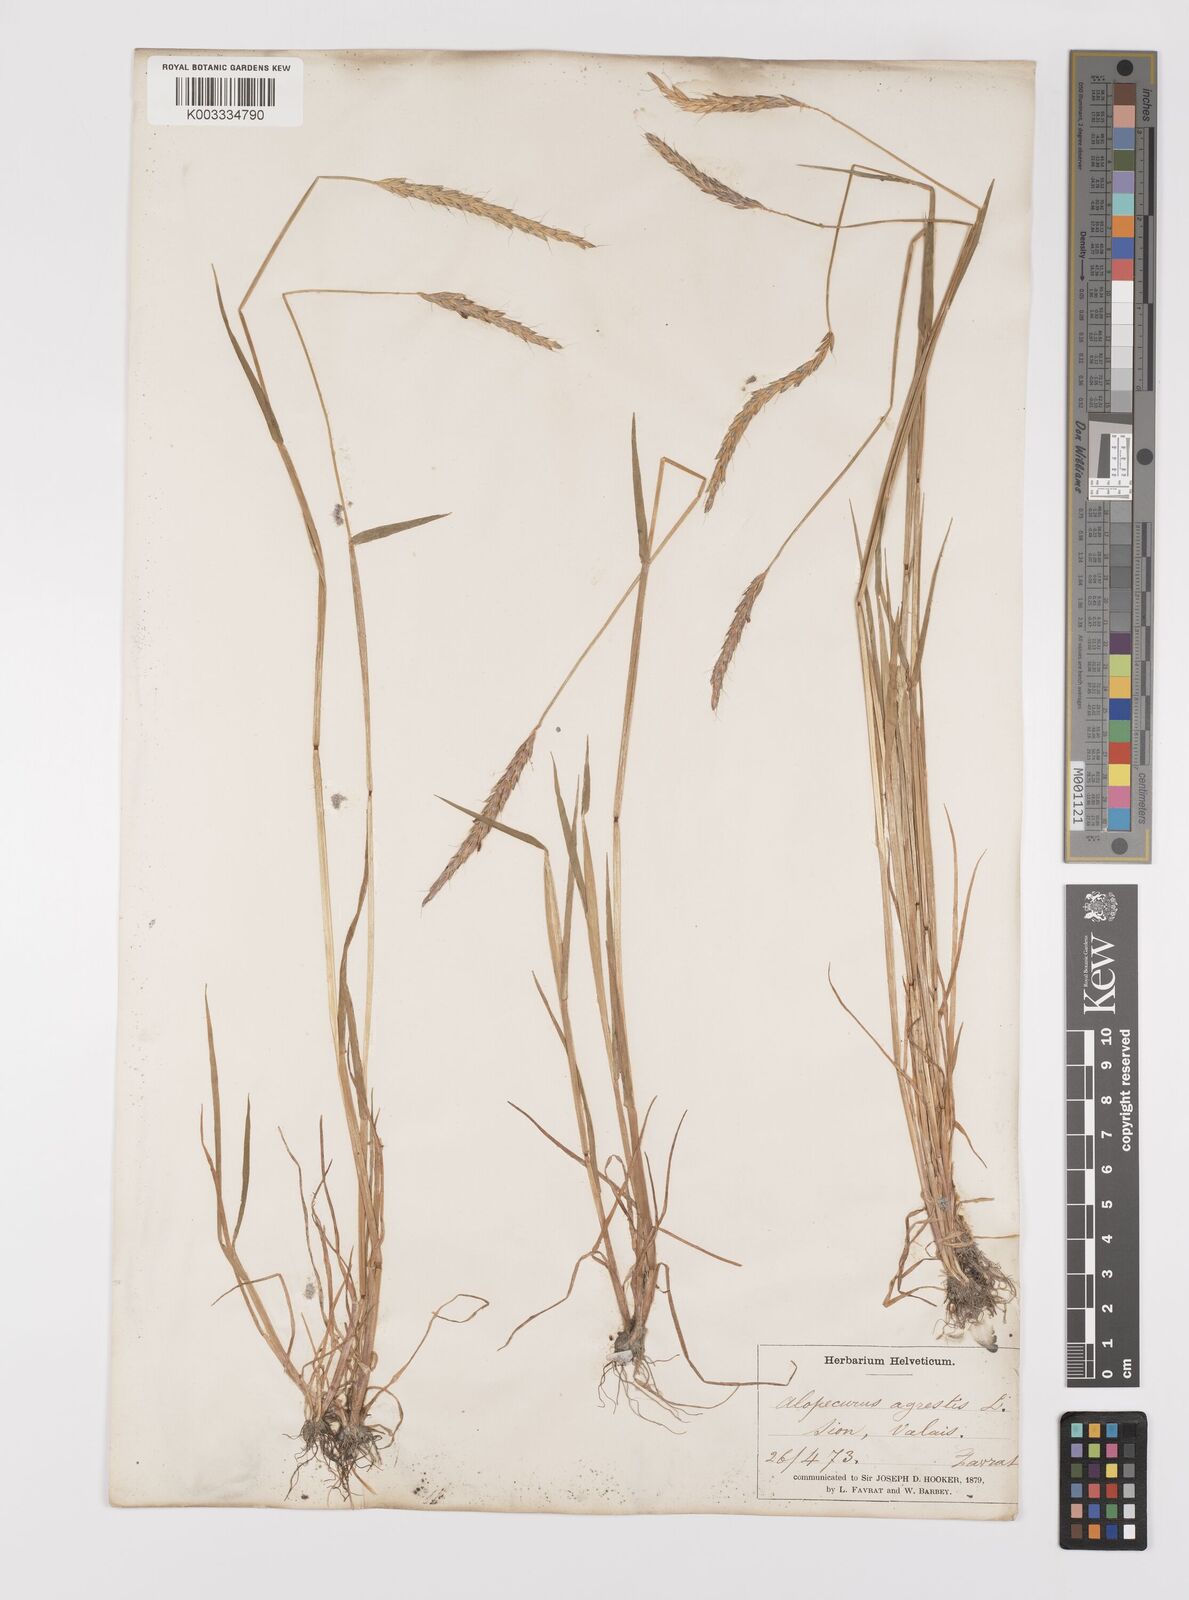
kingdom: Plantae
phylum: Tracheophyta
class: Liliopsida
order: Poales
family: Poaceae
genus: Alopecurus
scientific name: Alopecurus myosuroides
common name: Black-grass
